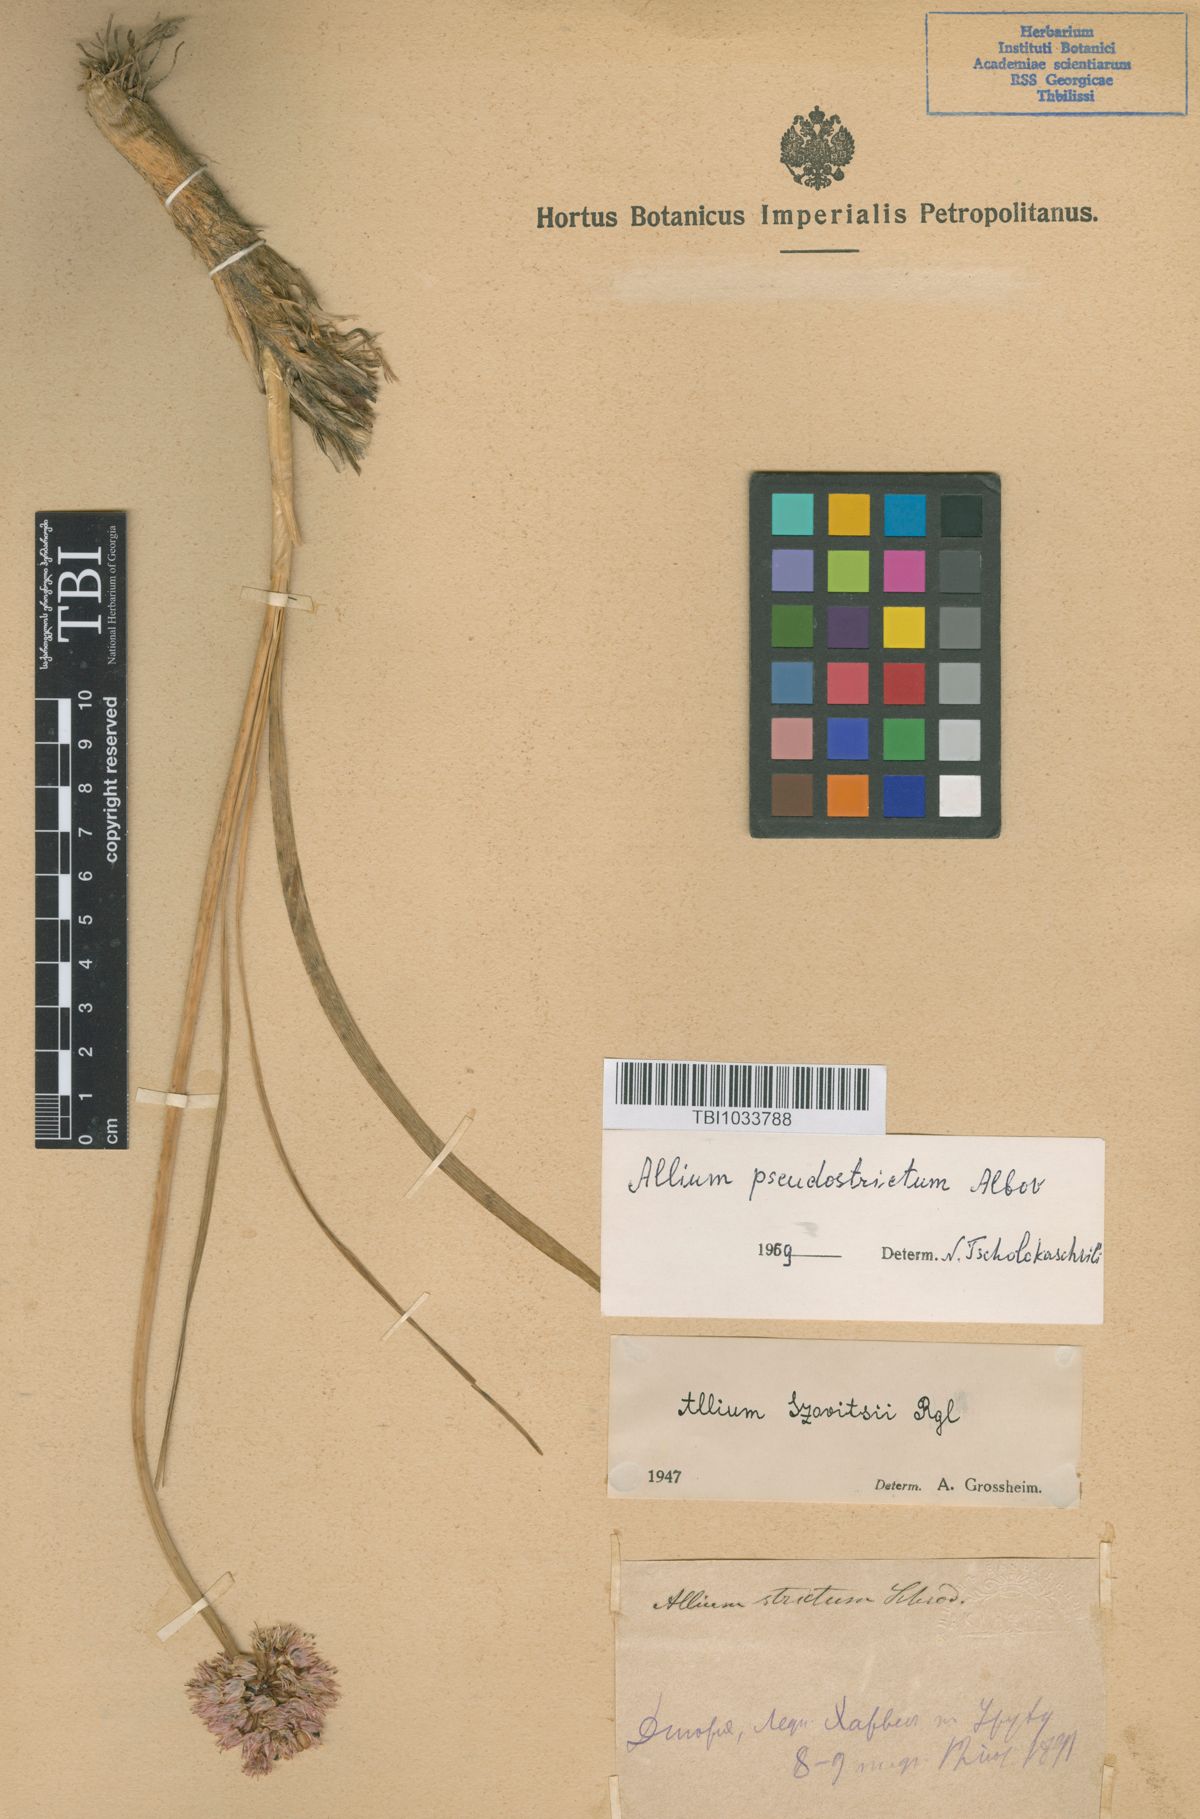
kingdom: Plantae
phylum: Tracheophyta
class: Liliopsida
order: Asparagales
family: Amaryllidaceae
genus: Allium
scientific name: Allium pseudostrictum
